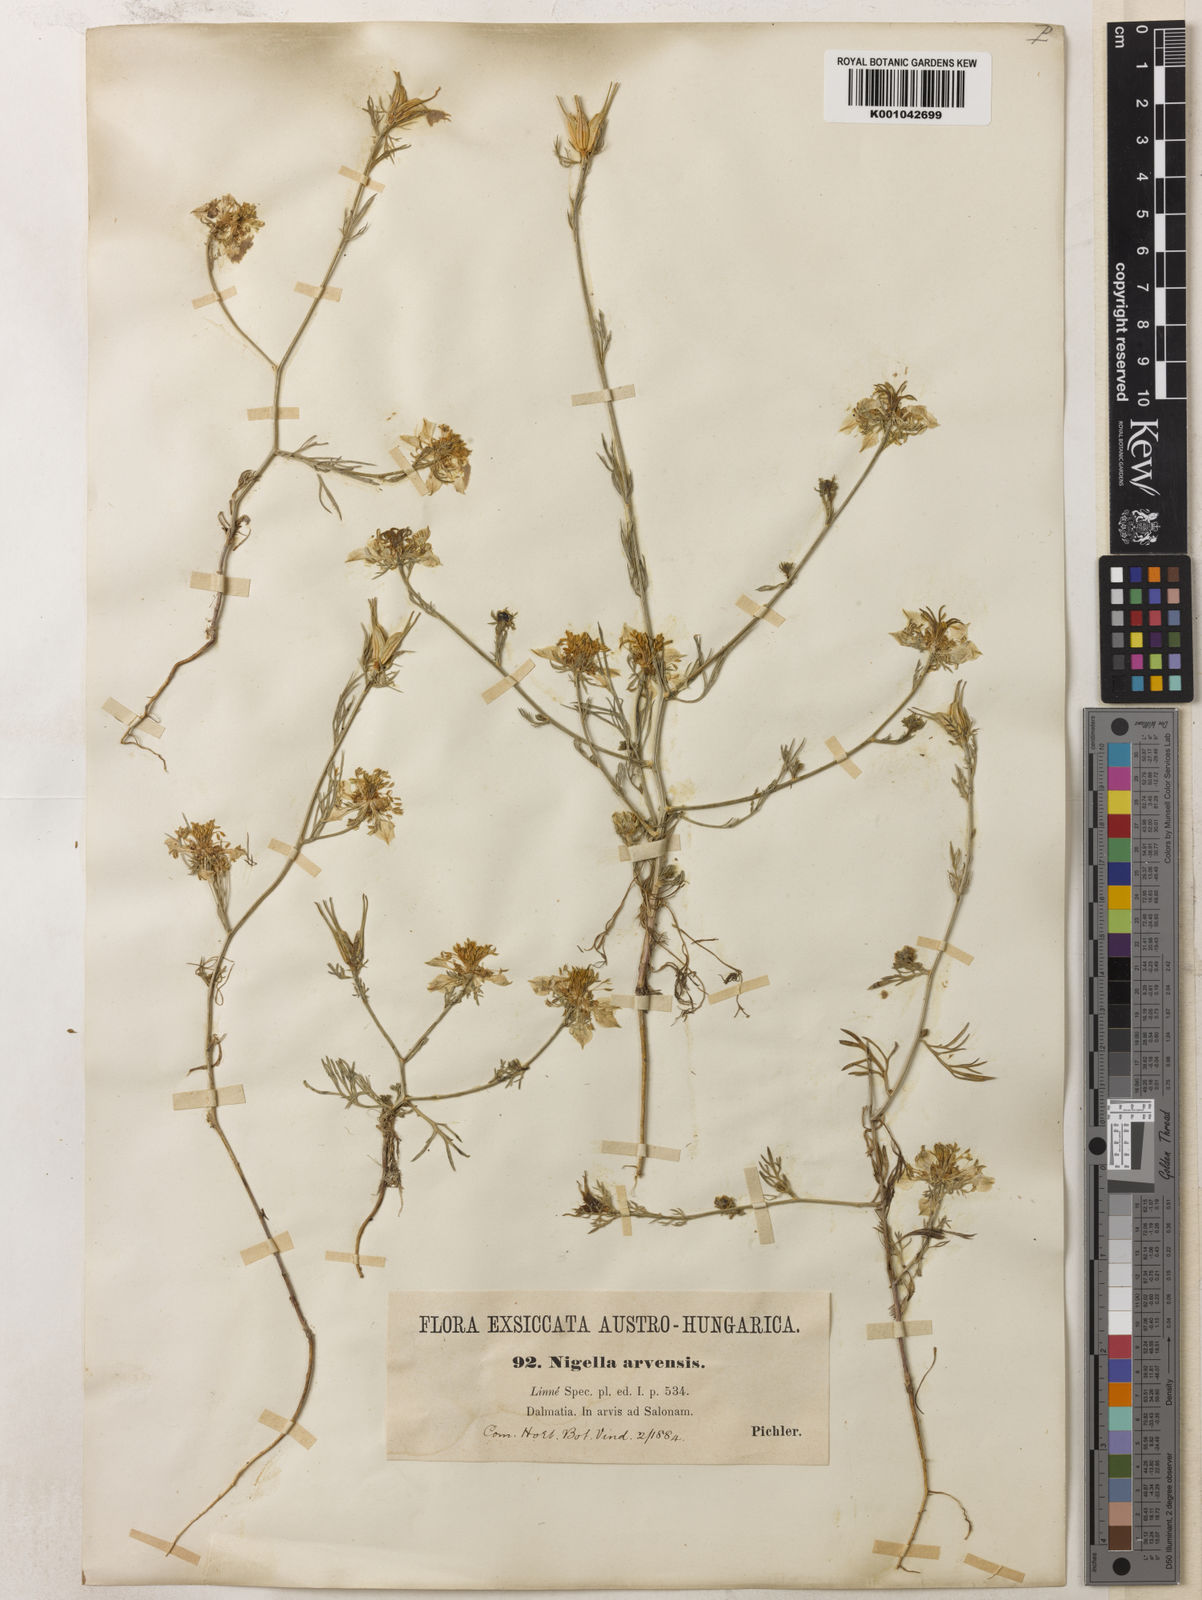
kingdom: Plantae
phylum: Tracheophyta
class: Magnoliopsida
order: Ranunculales
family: Ranunculaceae
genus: Nigella
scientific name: Nigella arvensis
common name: Wild fennel-flower
